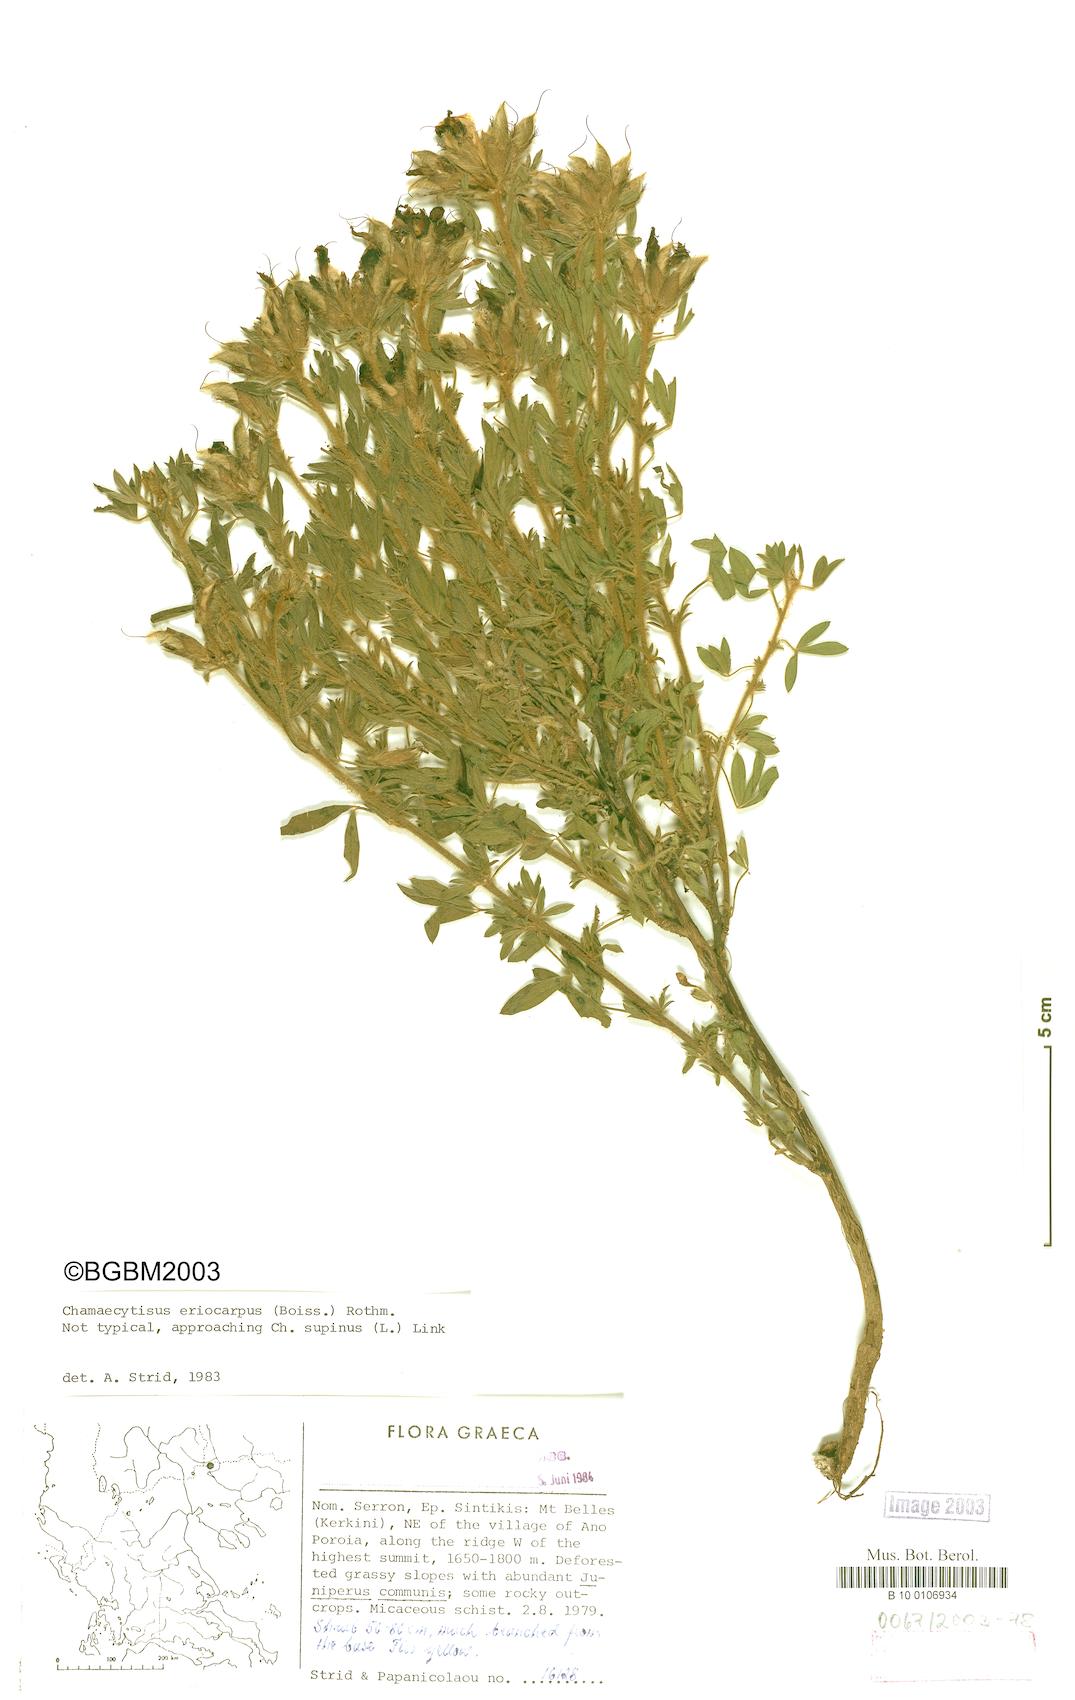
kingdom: Plantae
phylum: Tracheophyta
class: Magnoliopsida
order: Fabales
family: Fabaceae
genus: Chamaecytisus
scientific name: Chamaecytisus eriocarpus
